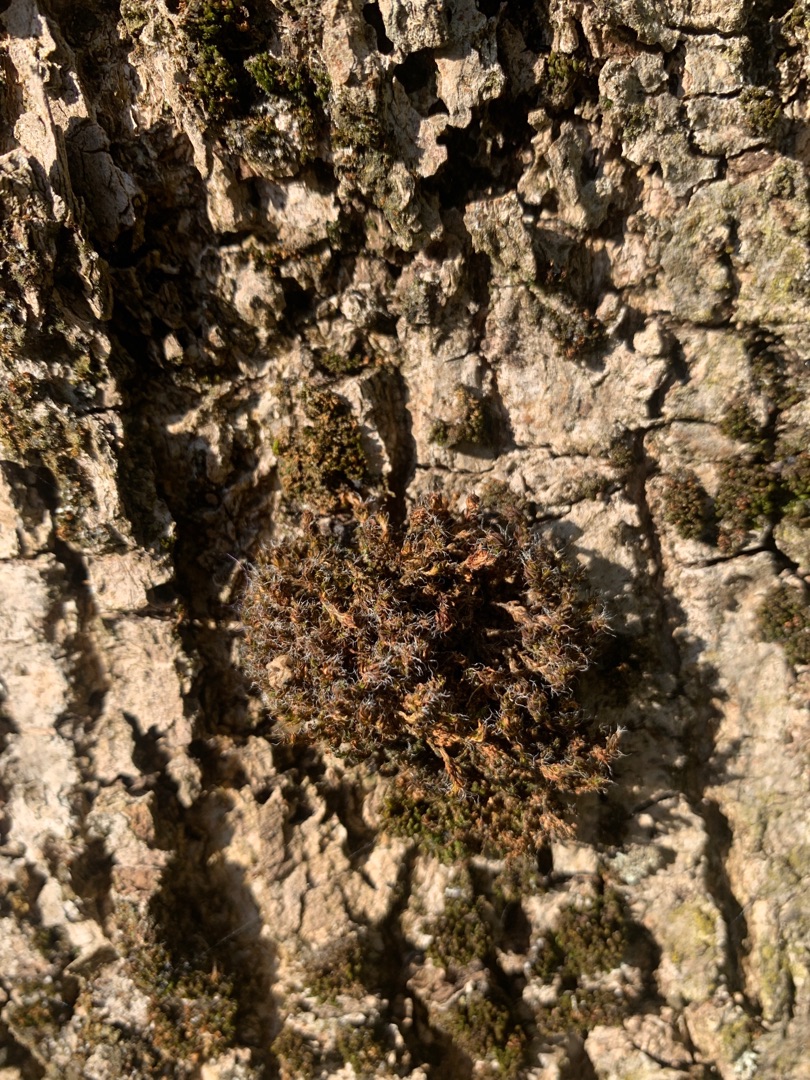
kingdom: Plantae
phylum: Bryophyta
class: Bryopsida
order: Pottiales
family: Pottiaceae
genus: Syntrichia
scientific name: Syntrichia ruralis
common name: Tag-hårstjerne
